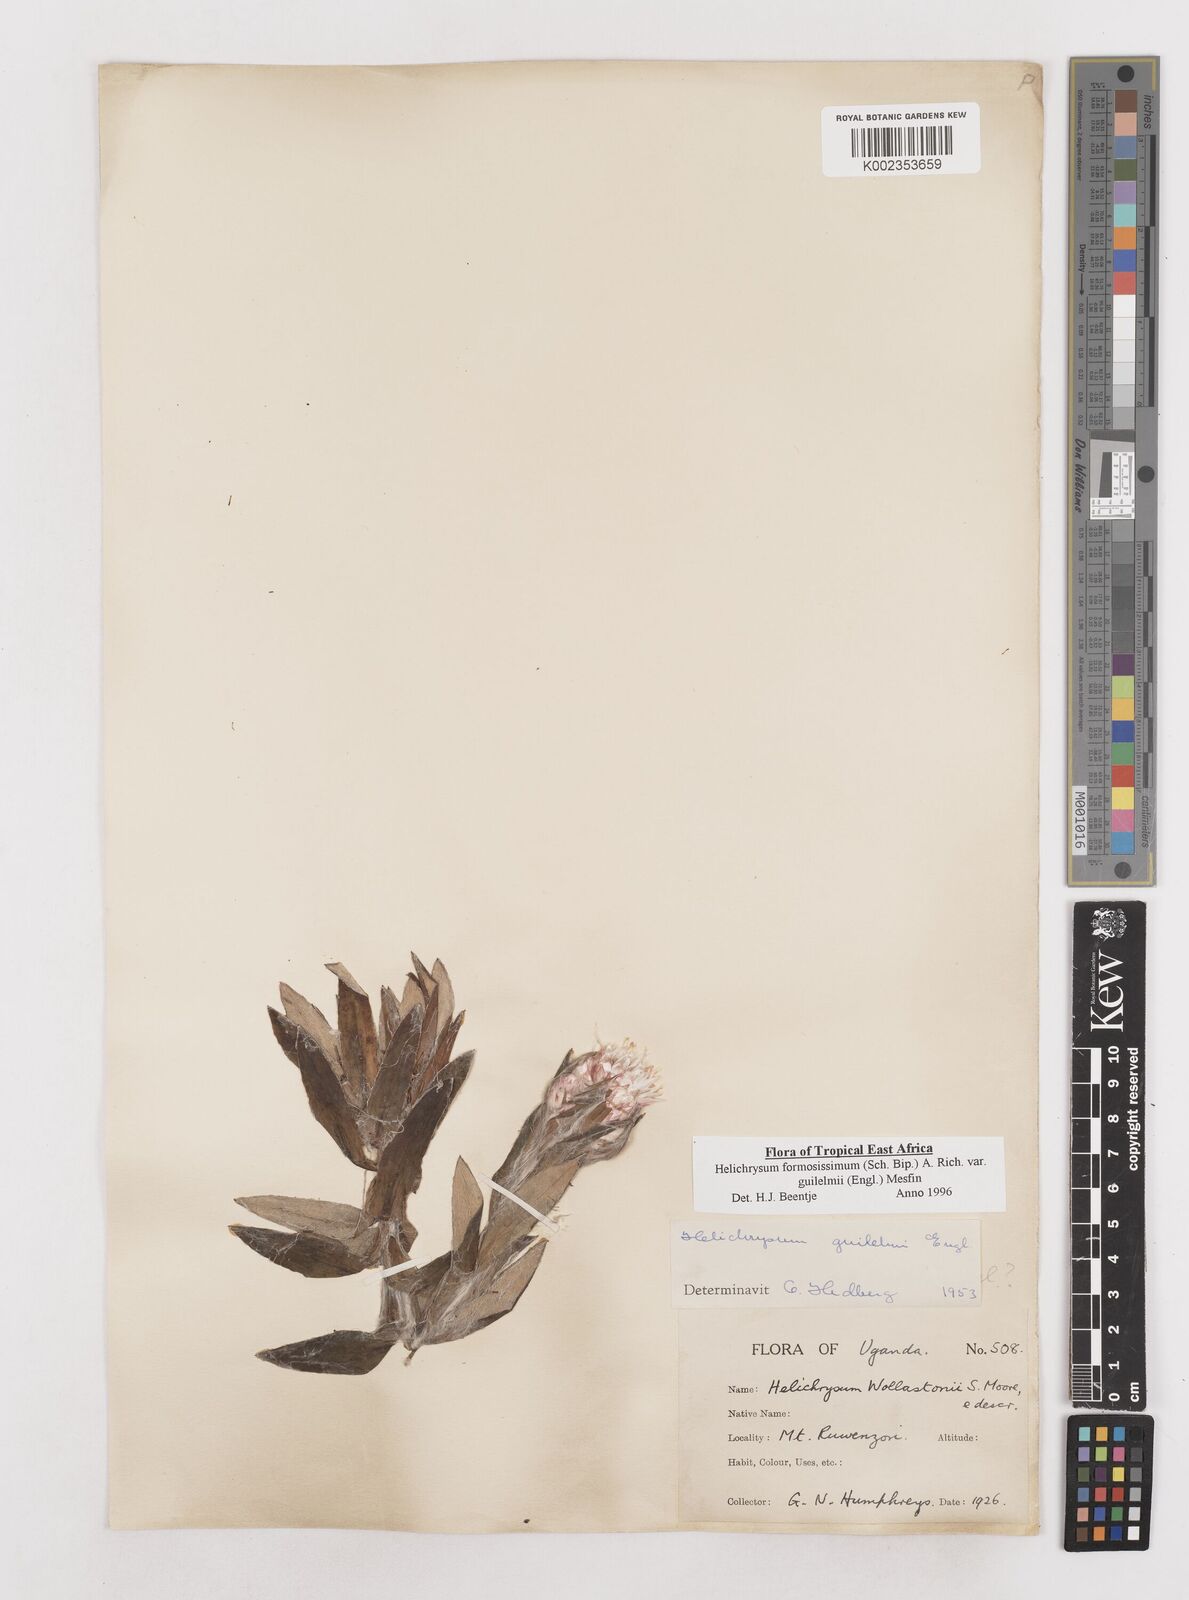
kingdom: Plantae
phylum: Tracheophyta
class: Magnoliopsida
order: Asterales
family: Asteraceae
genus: Helichrysum
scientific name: Helichrysum formosissimum
